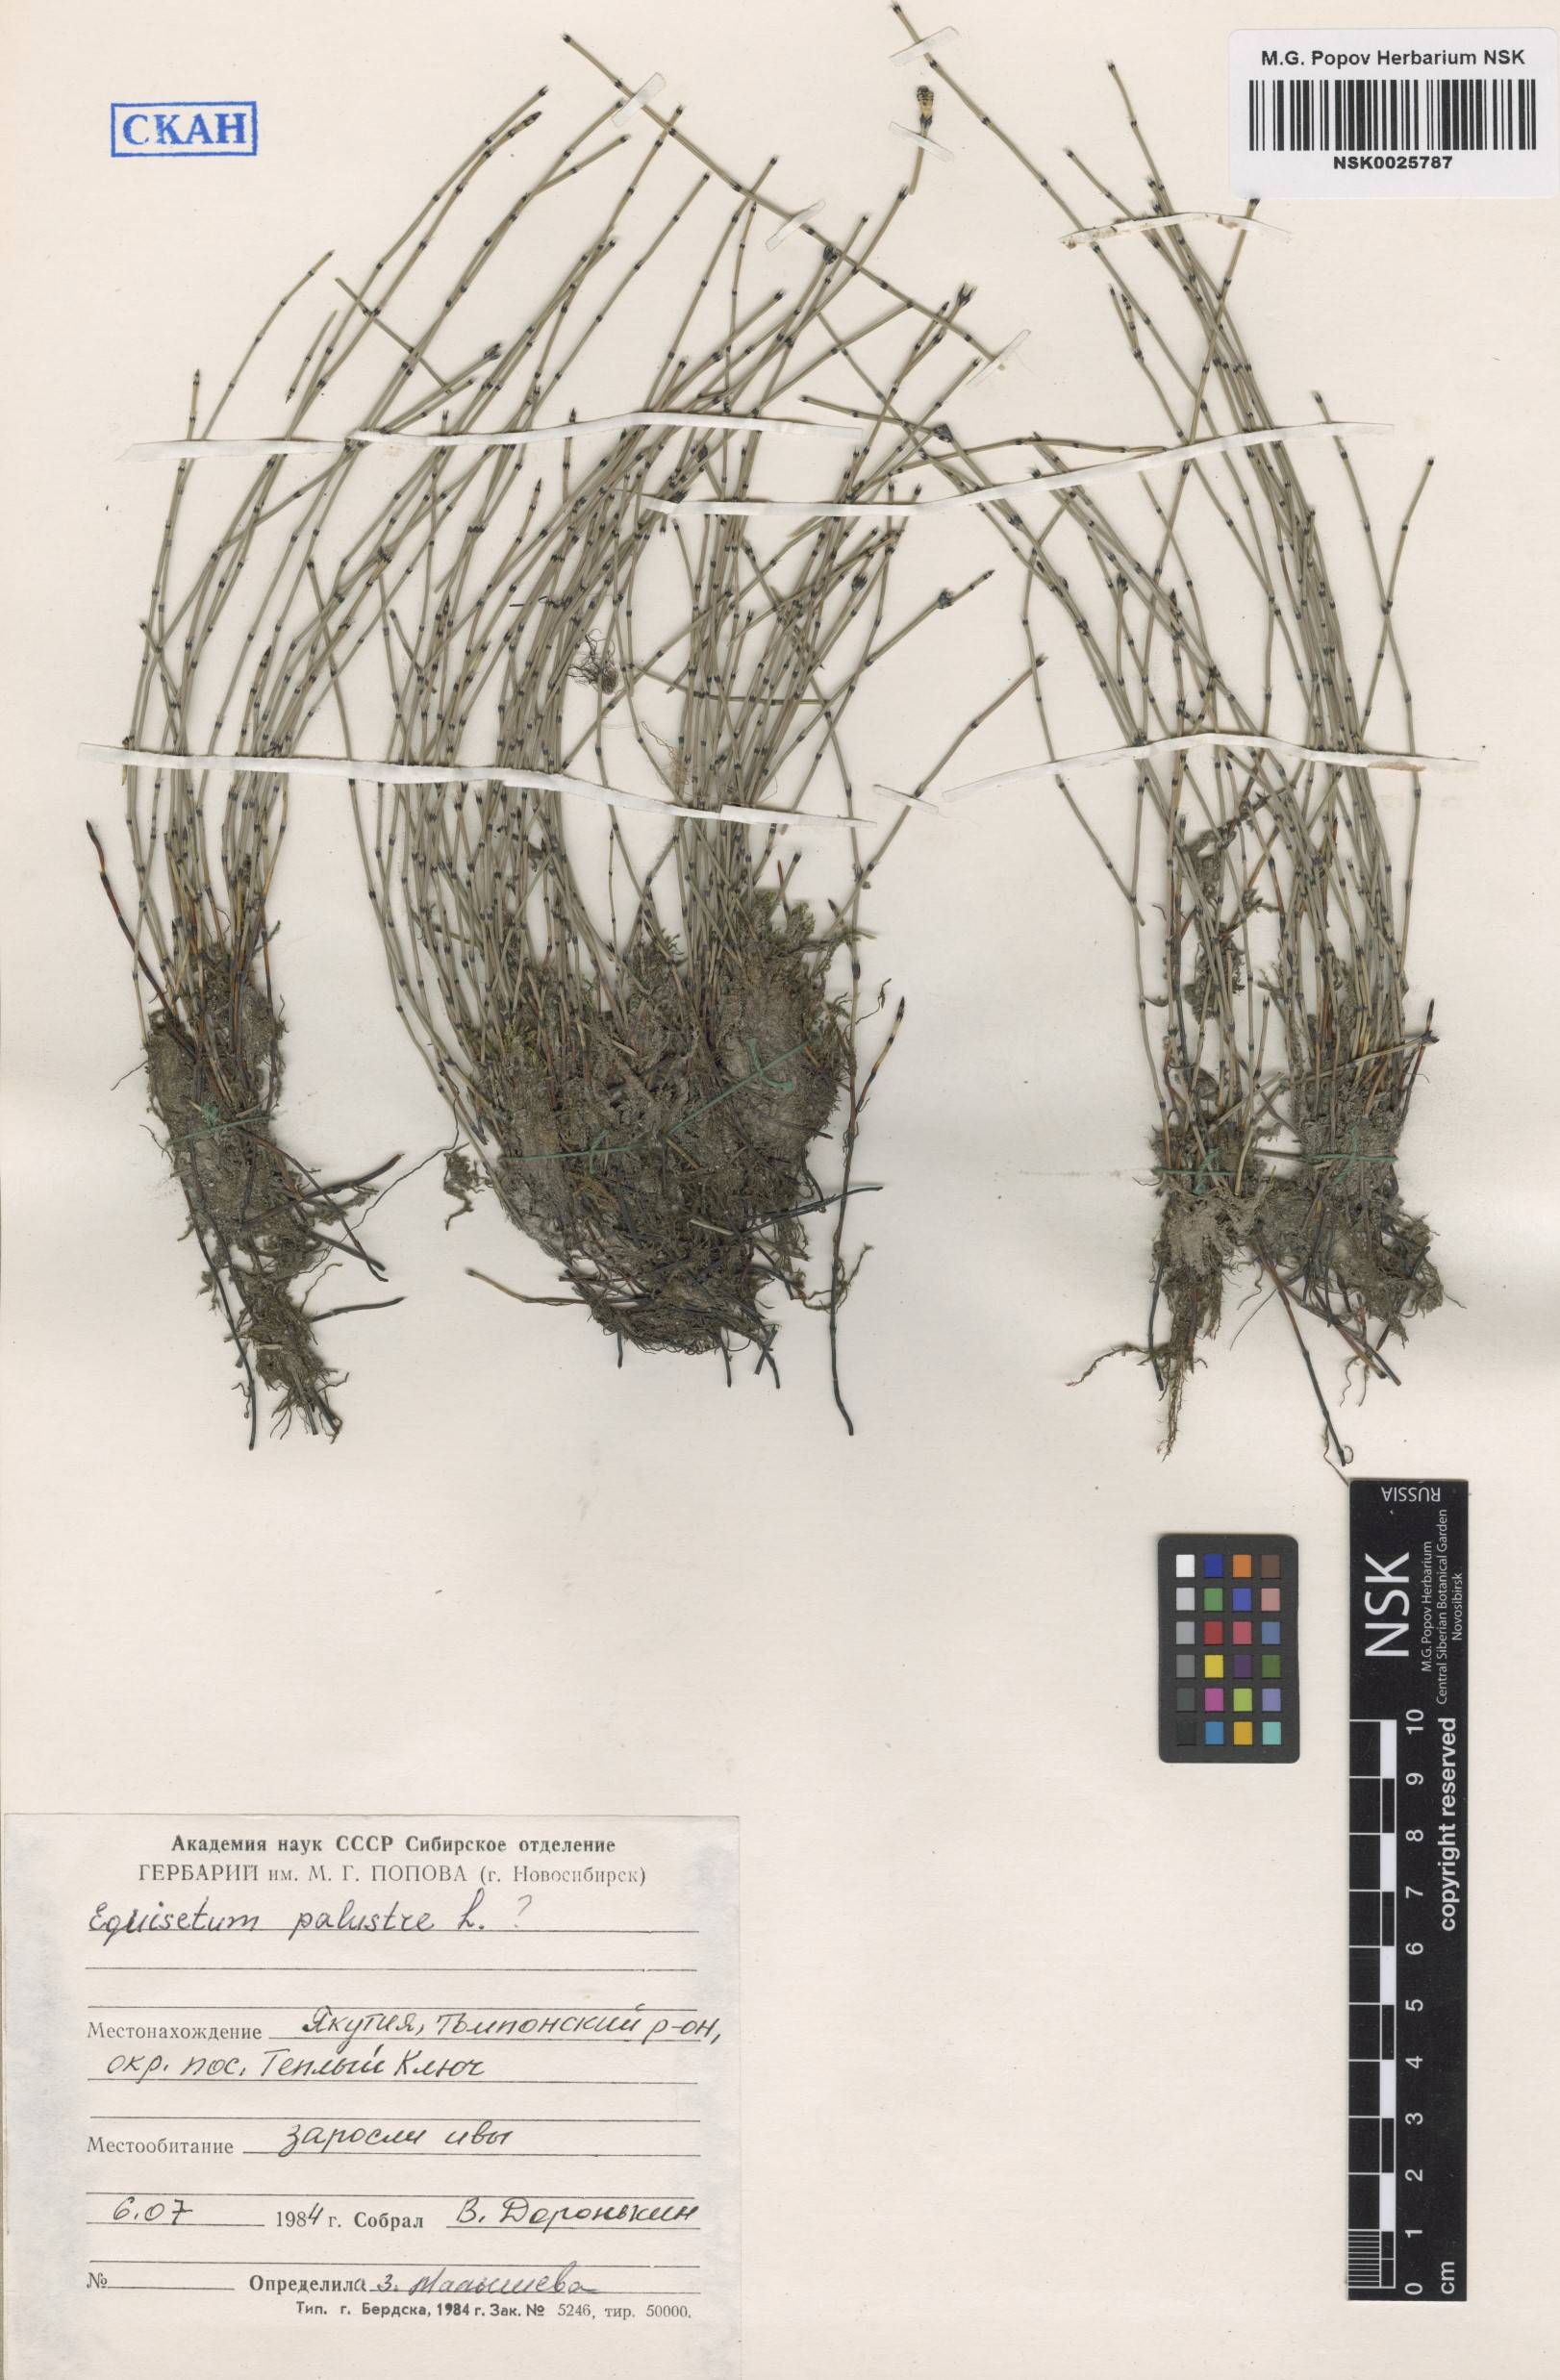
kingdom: Plantae
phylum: Tracheophyta
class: Polypodiopsida
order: Equisetales
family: Equisetaceae
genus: Equisetum
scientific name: Equisetum palustre
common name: Marsh horsetail
